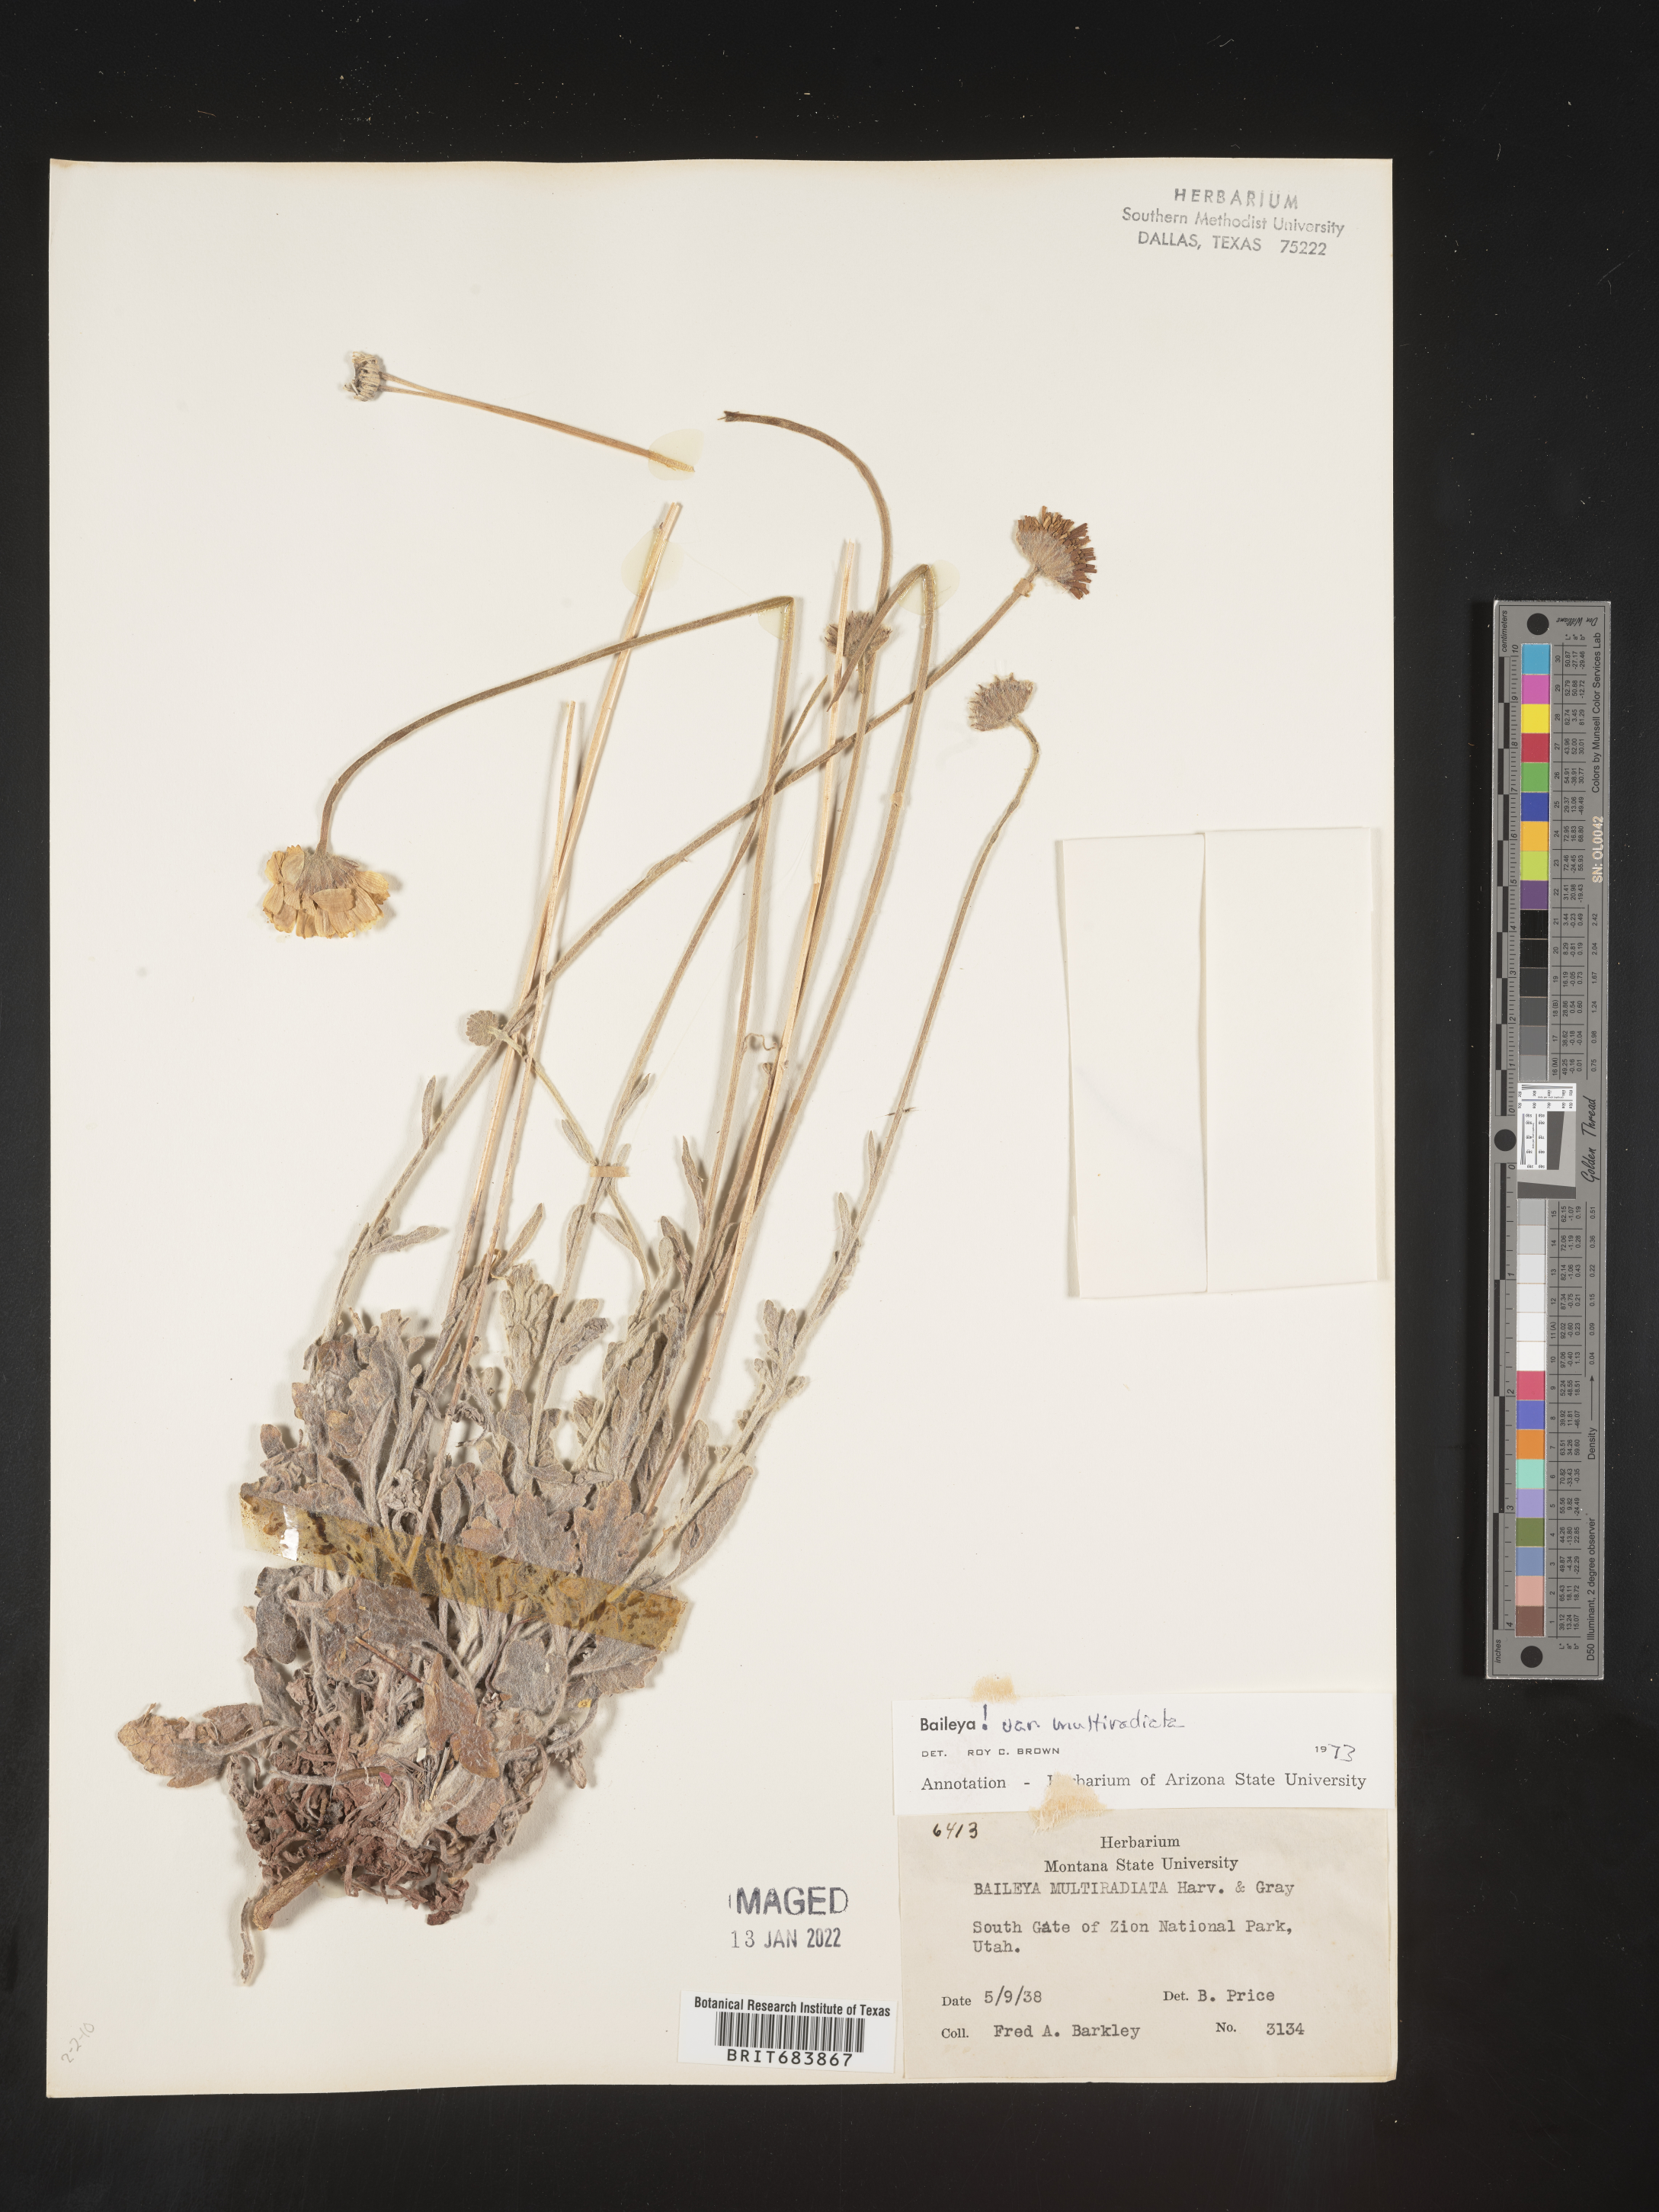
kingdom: Plantae
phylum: Tracheophyta
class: Magnoliopsida
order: Asterales
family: Asteraceae
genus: Baileya
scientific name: Baileya multiradiata
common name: Desert-marigold
